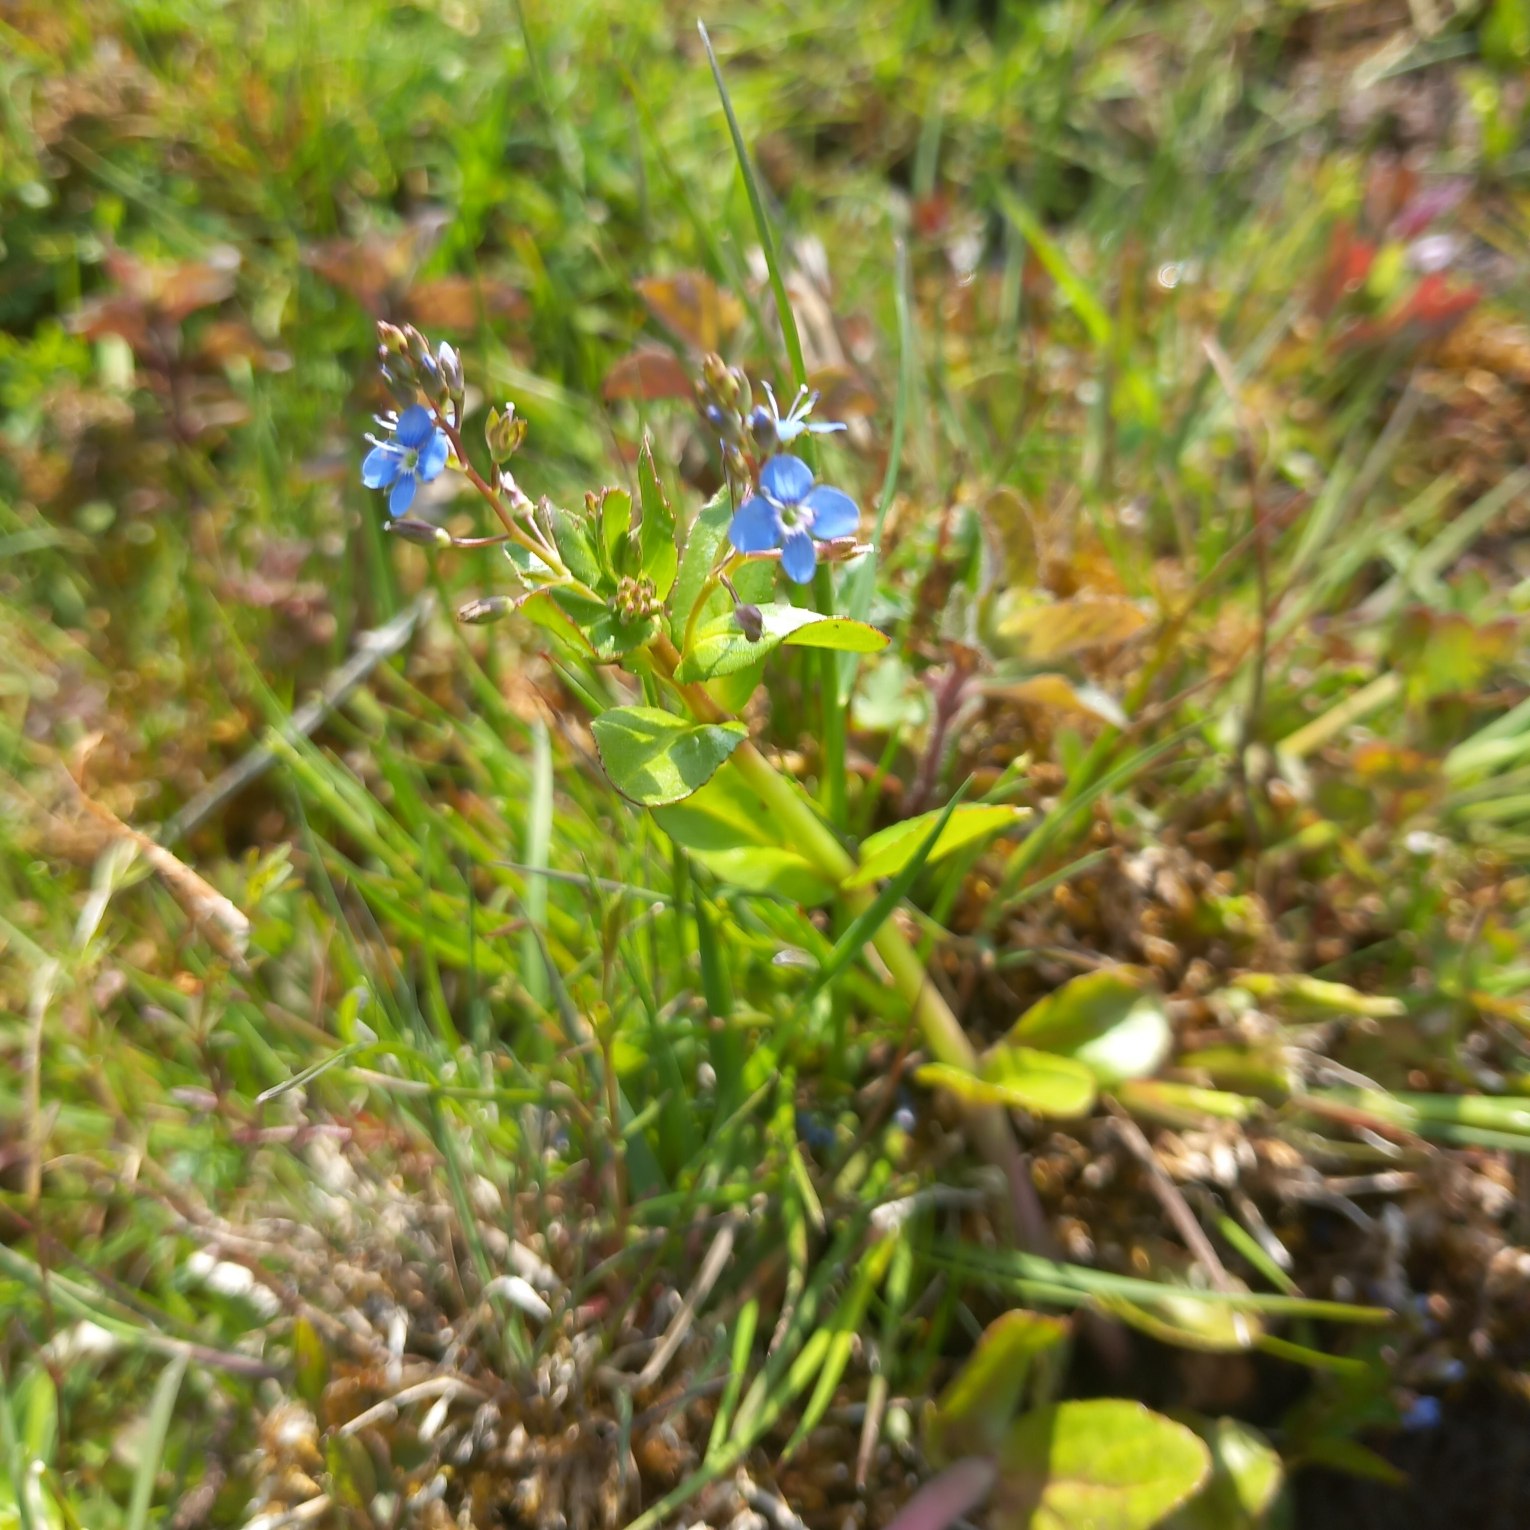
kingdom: Plantae
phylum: Tracheophyta
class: Magnoliopsida
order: Lamiales
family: Plantaginaceae
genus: Veronica
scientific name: Veronica beccabunga
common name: Tykbladet ærenpris
